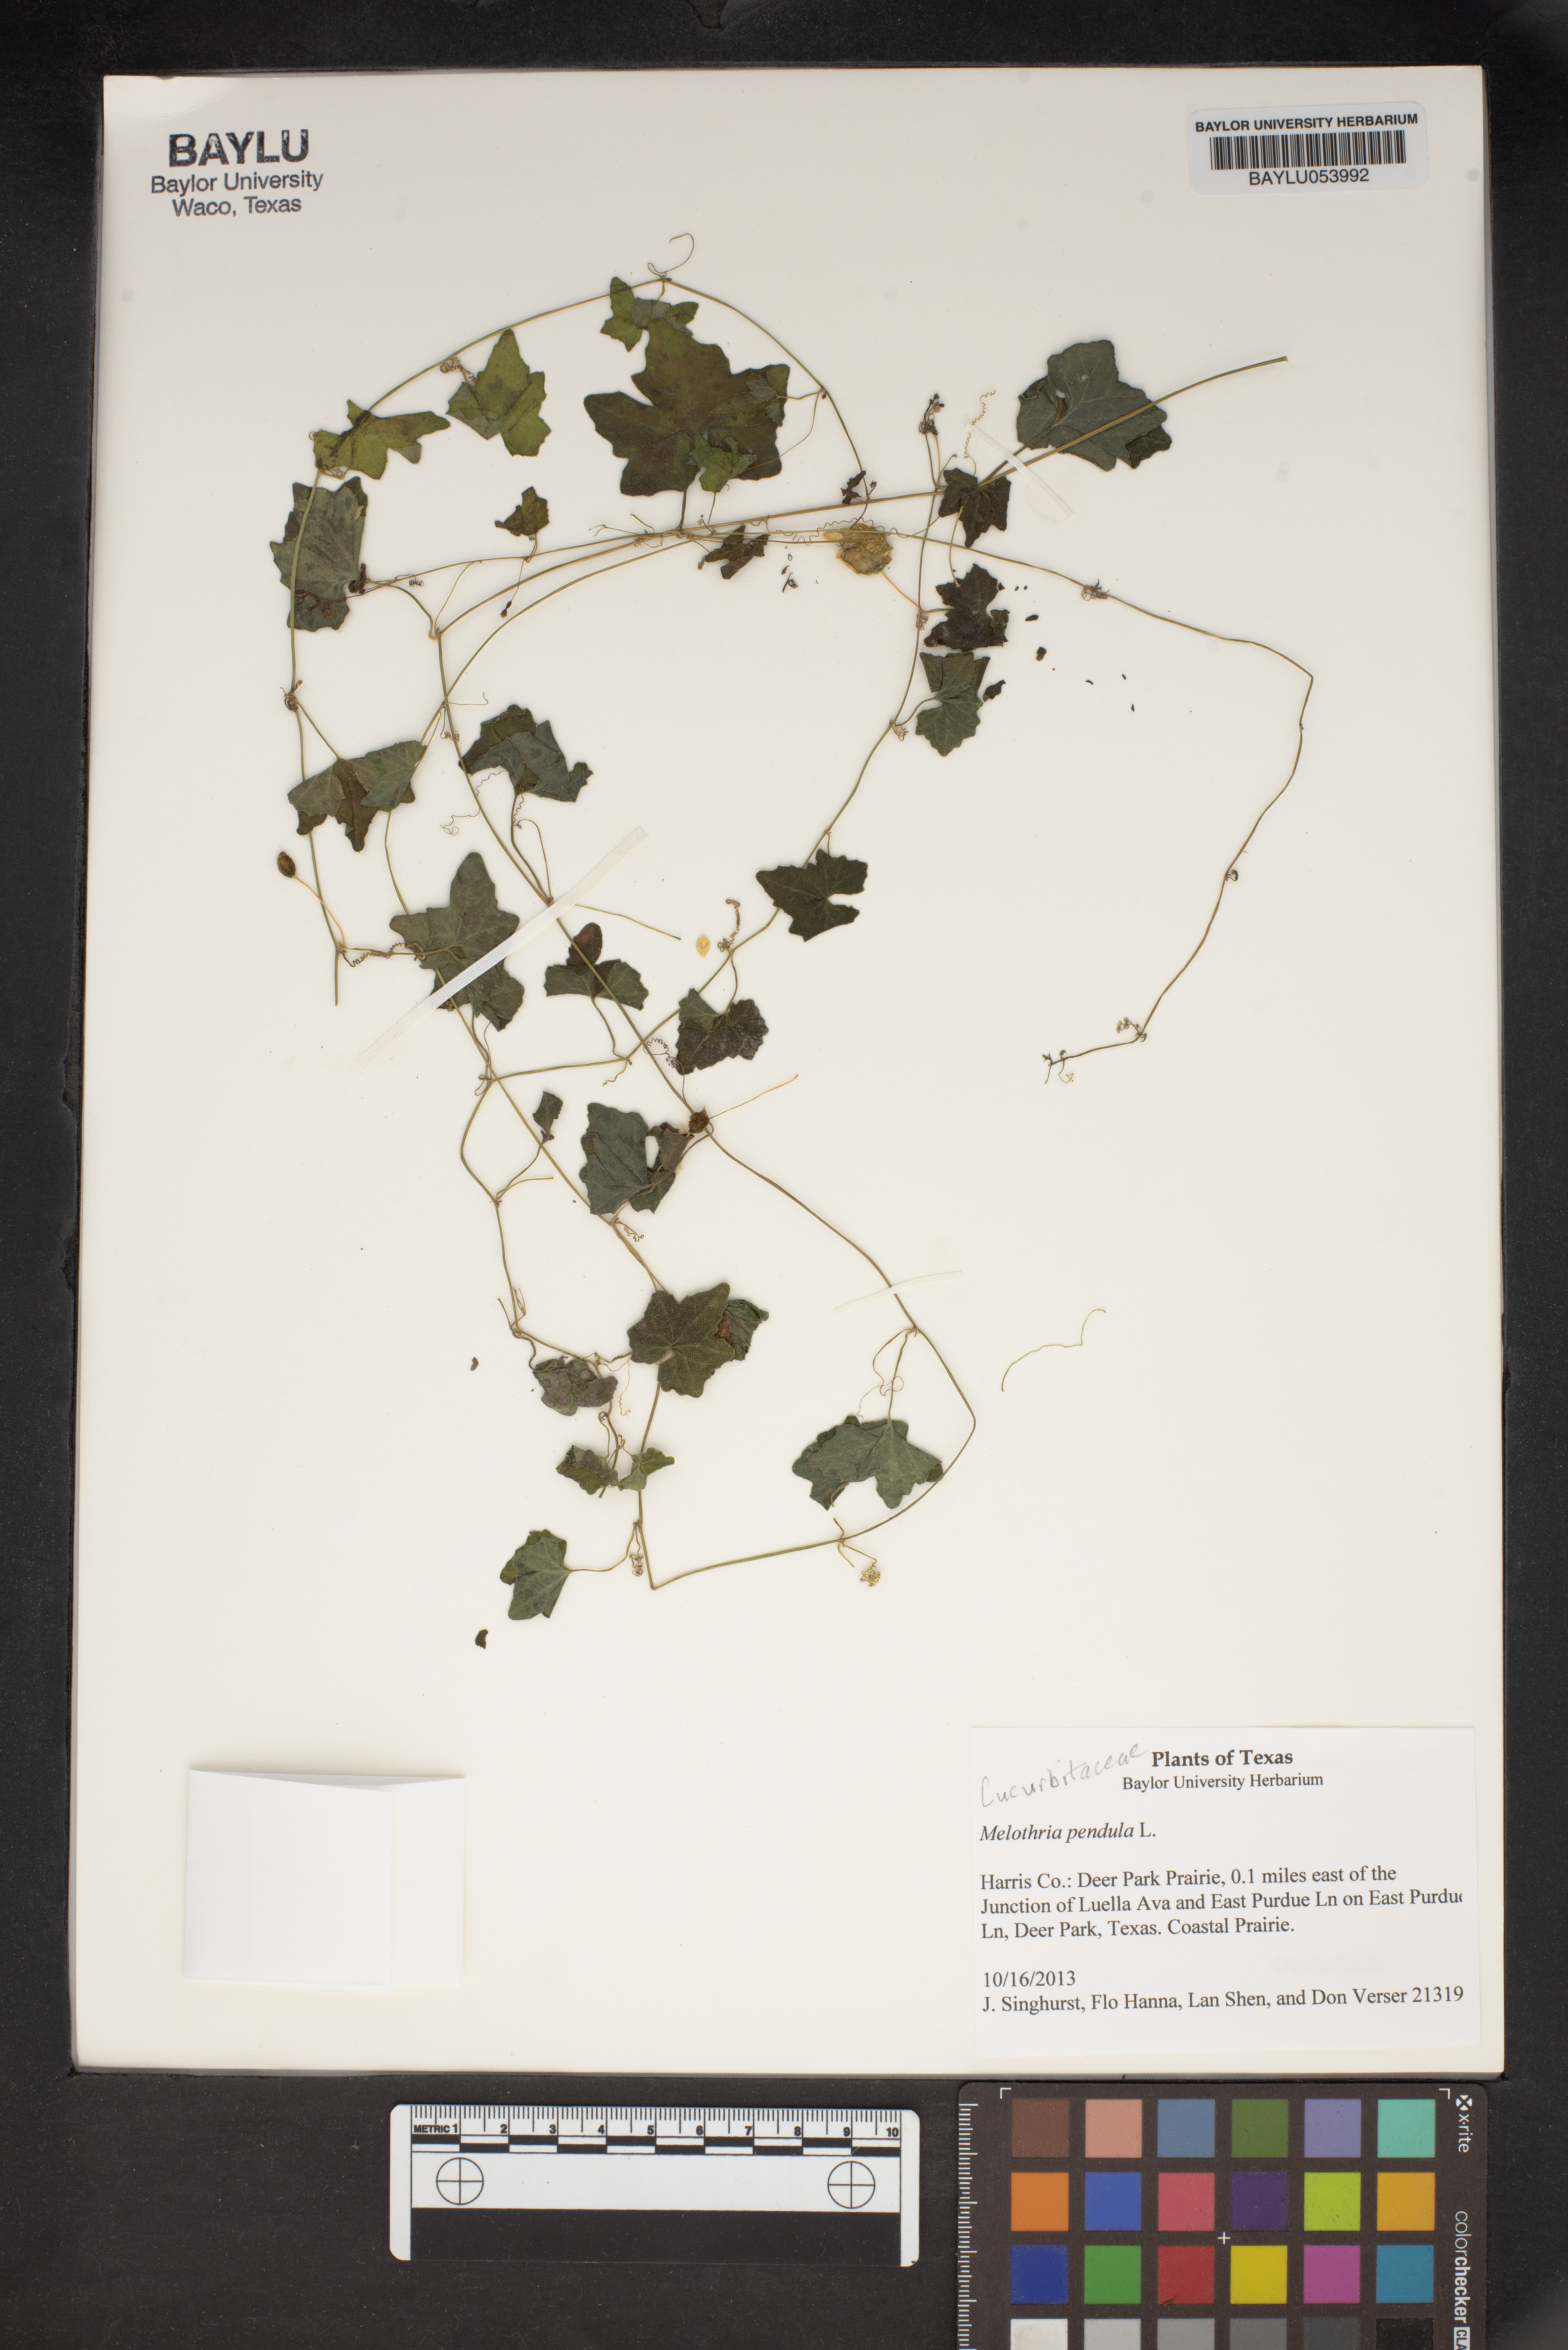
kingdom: Plantae
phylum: Tracheophyta
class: Magnoliopsida
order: Cucurbitales
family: Cucurbitaceae
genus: Melothria
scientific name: Melothria pendula
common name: Creeping-cucumber
